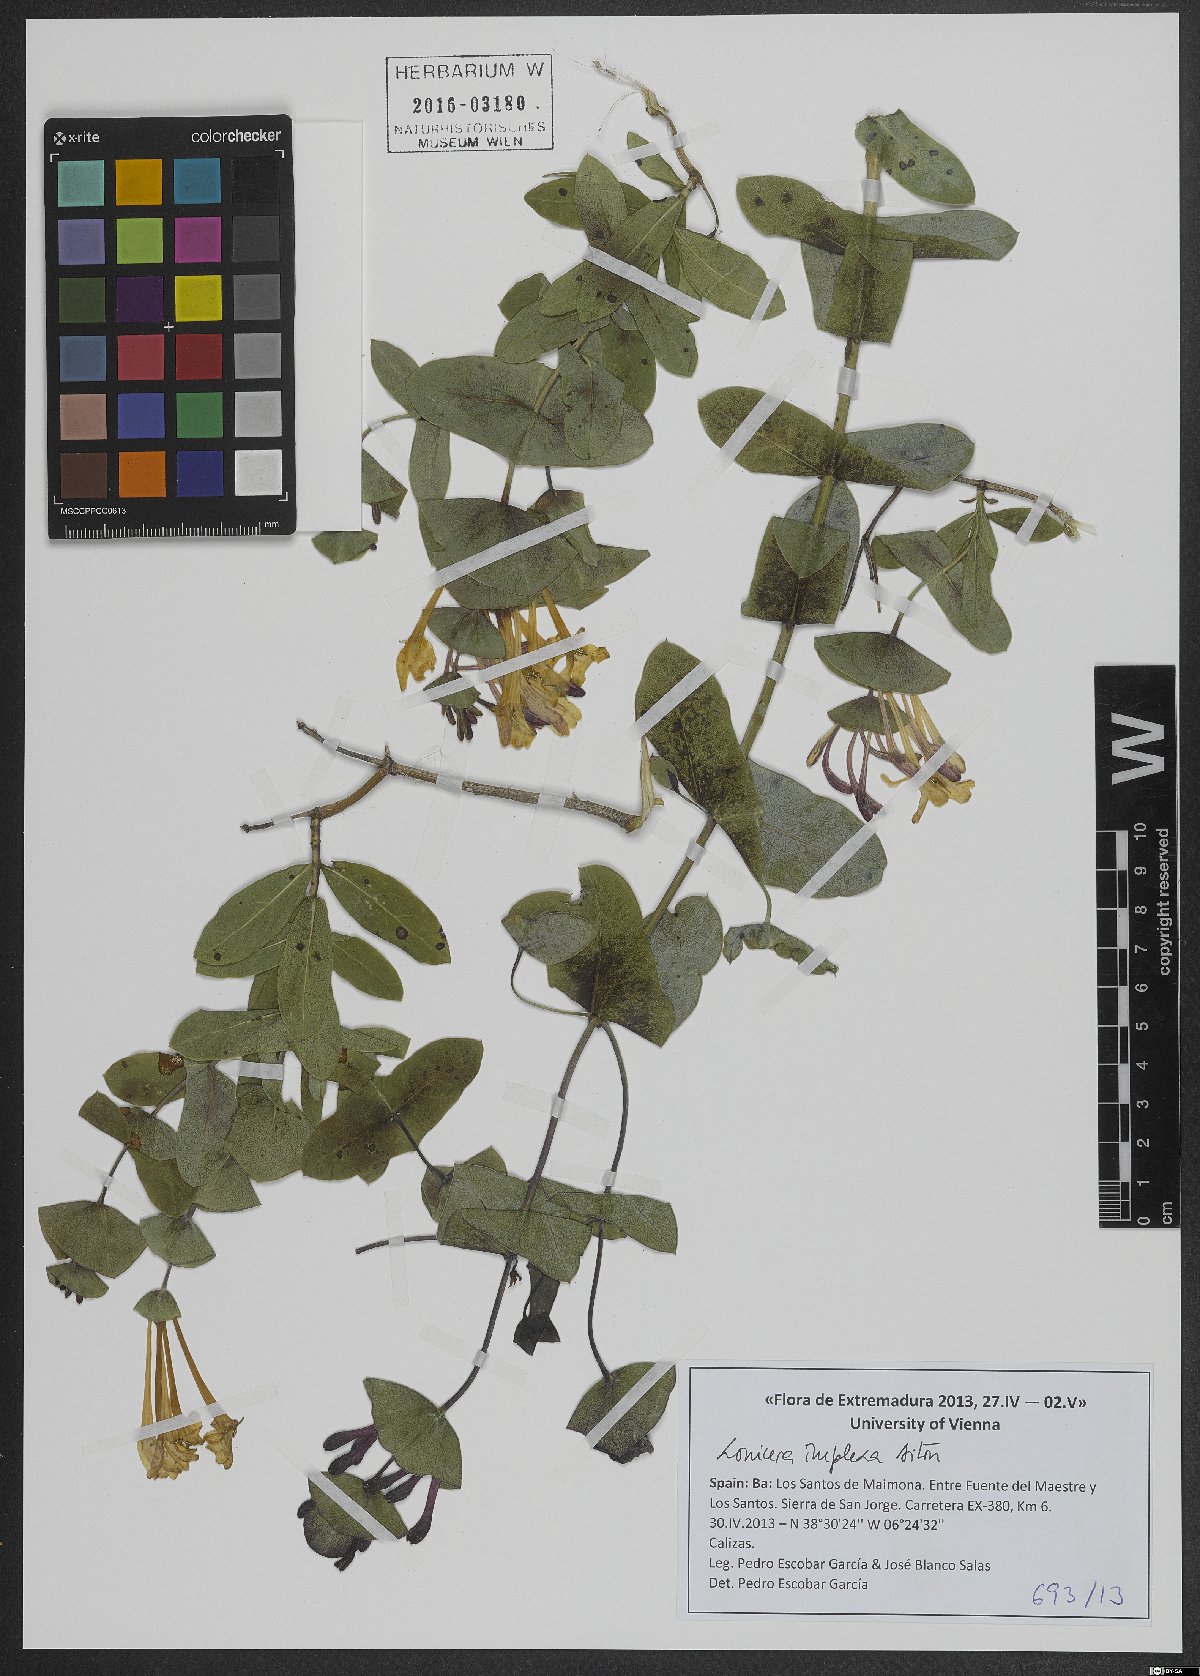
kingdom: Plantae
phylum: Tracheophyta
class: Magnoliopsida
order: Dipsacales
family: Caprifoliaceae
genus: Lonicera
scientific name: Lonicera implexa
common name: Minorca honeysuckle
